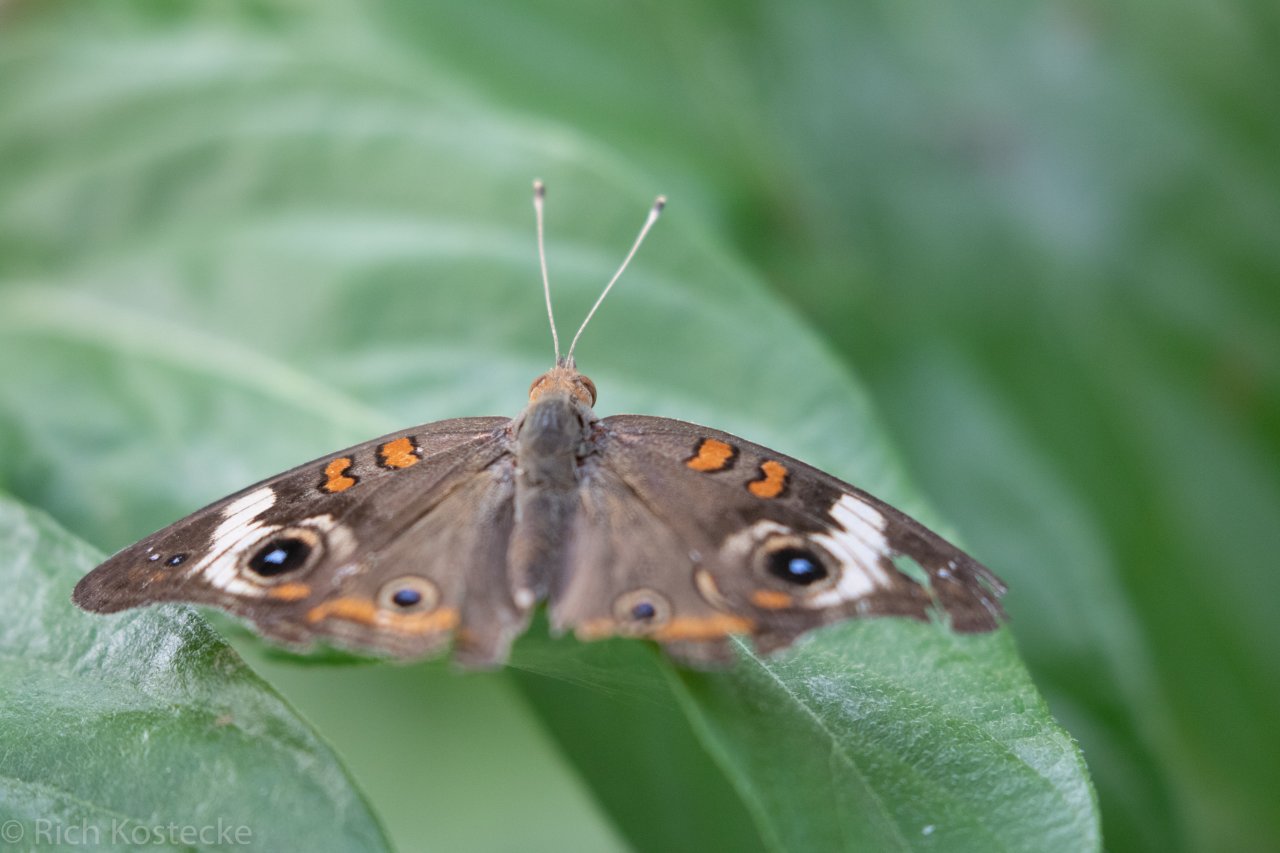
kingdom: Animalia
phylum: Arthropoda
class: Insecta
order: Lepidoptera
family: Nymphalidae
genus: Junonia
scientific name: Junonia coenia
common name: Common Buckeye
